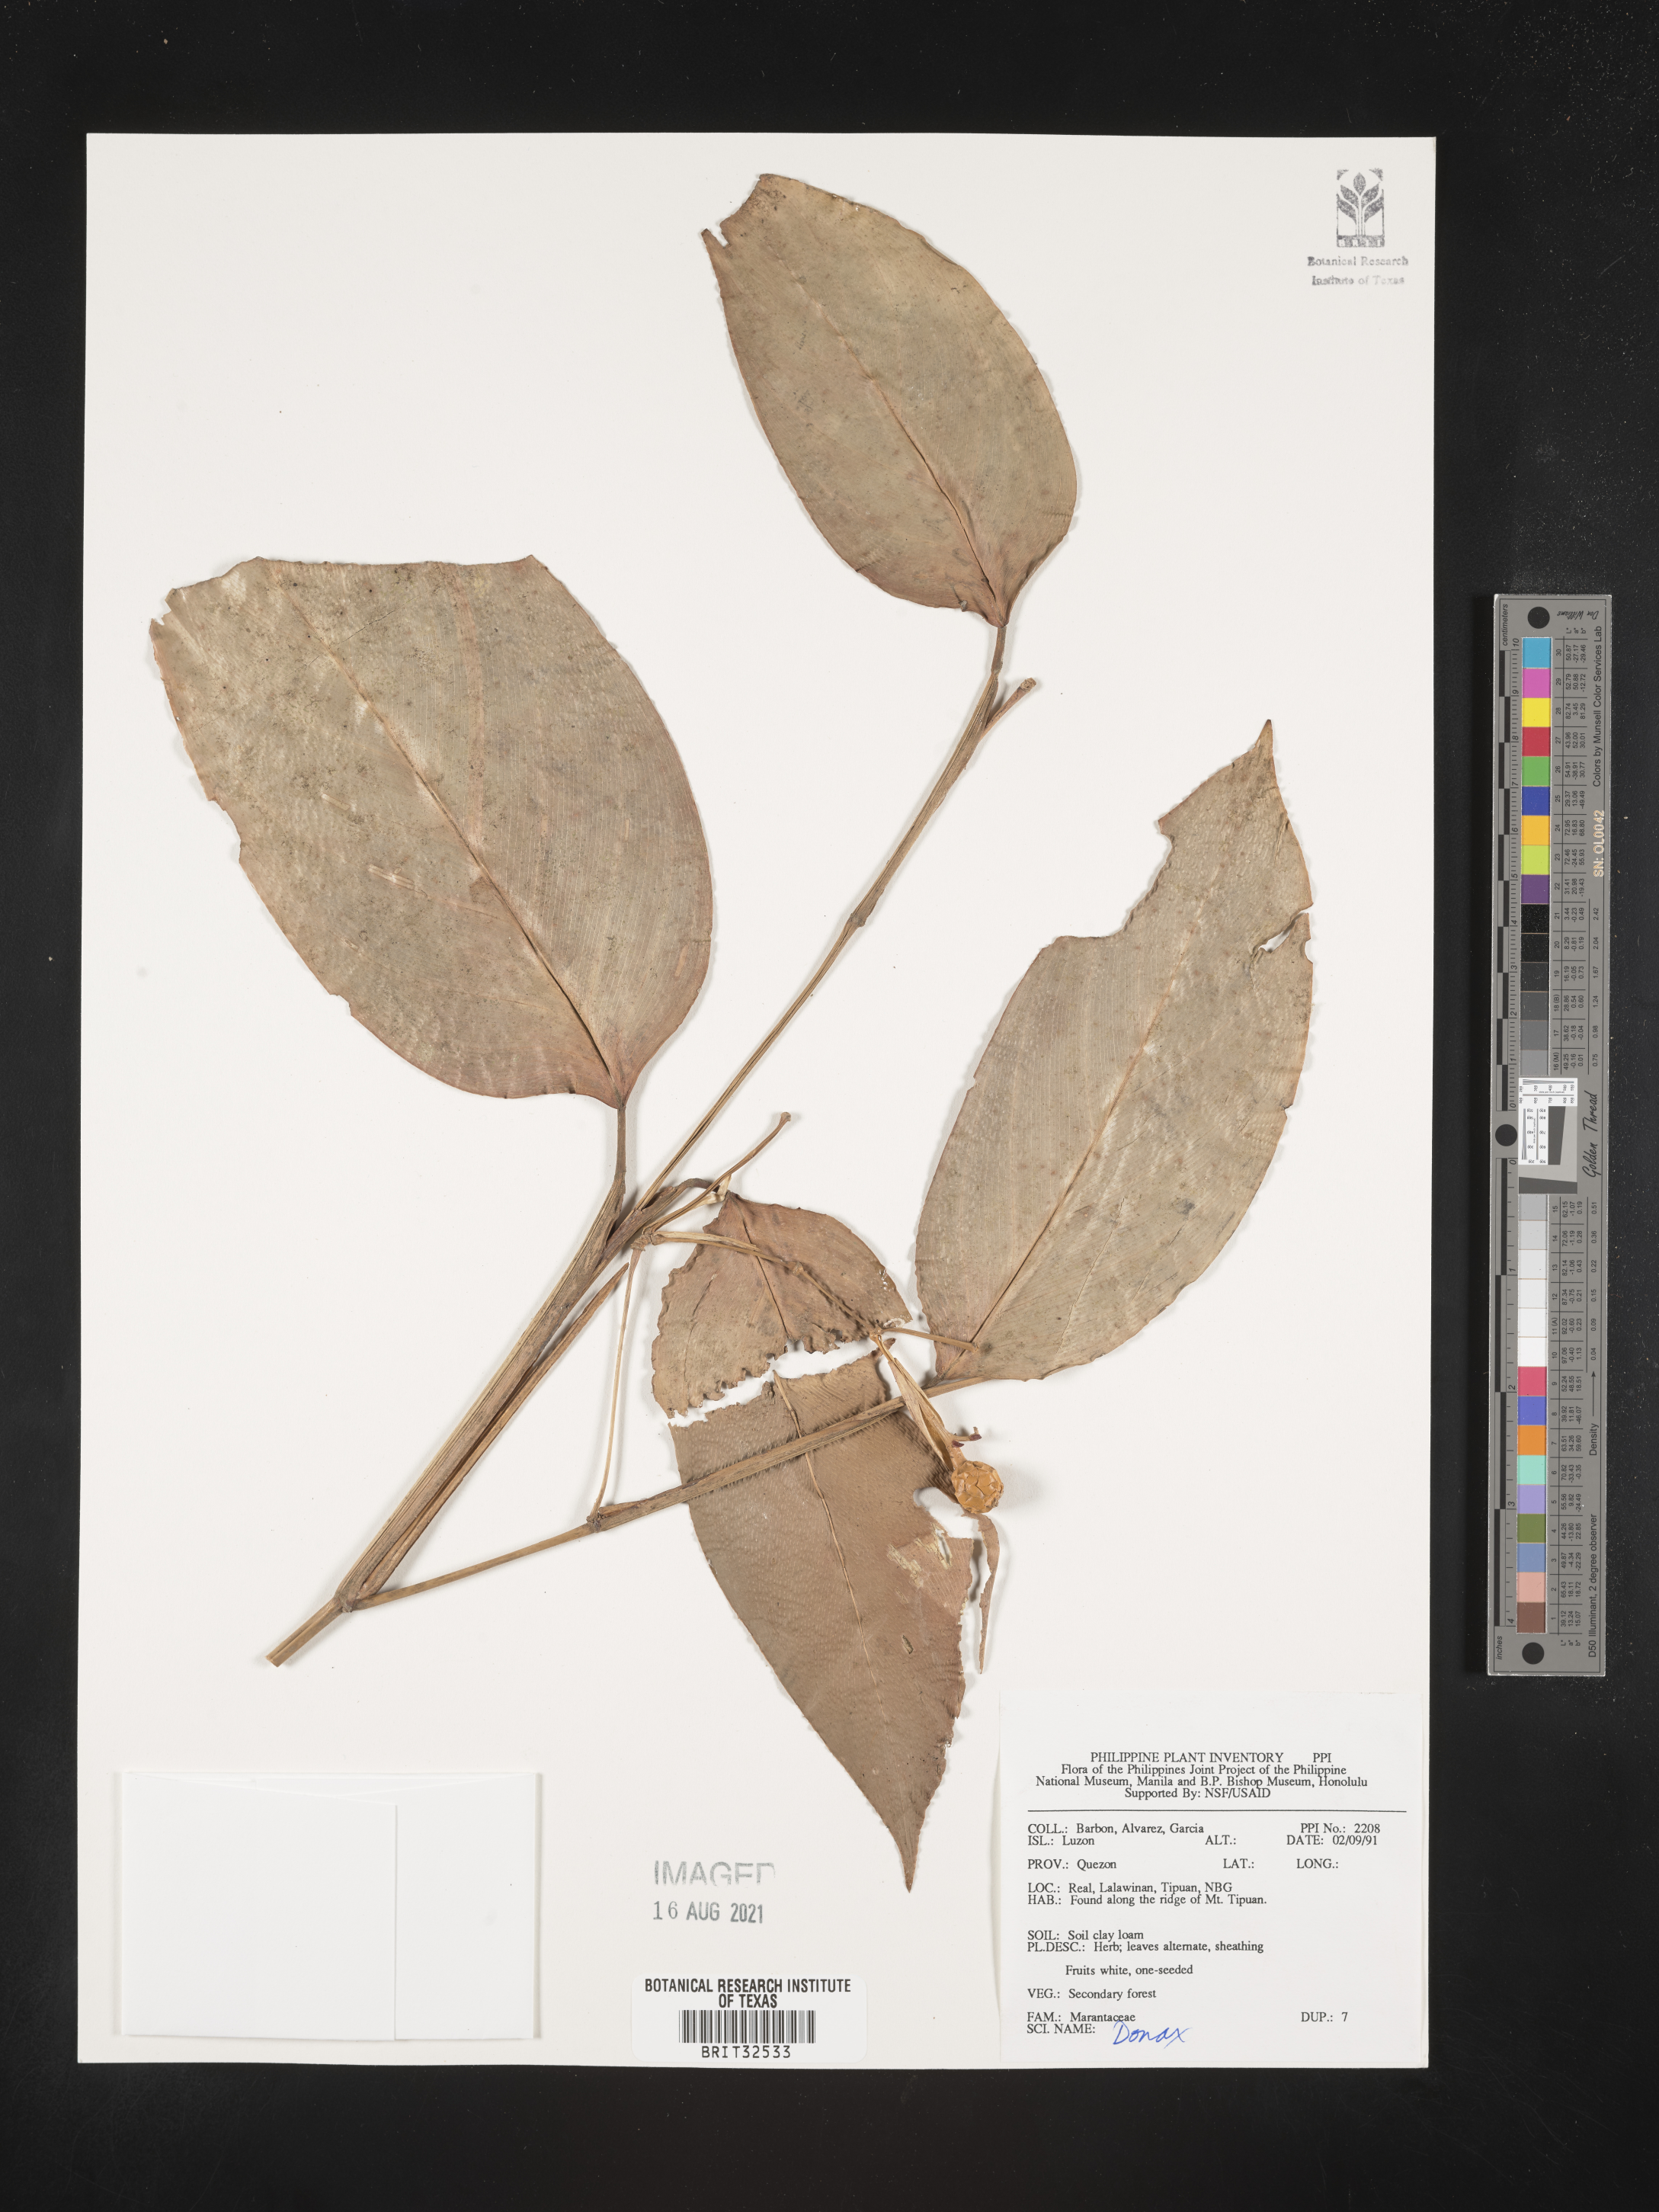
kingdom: Plantae
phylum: Tracheophyta
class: Liliopsida
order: Zingiberales
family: Marantaceae
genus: Donax
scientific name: Donax
